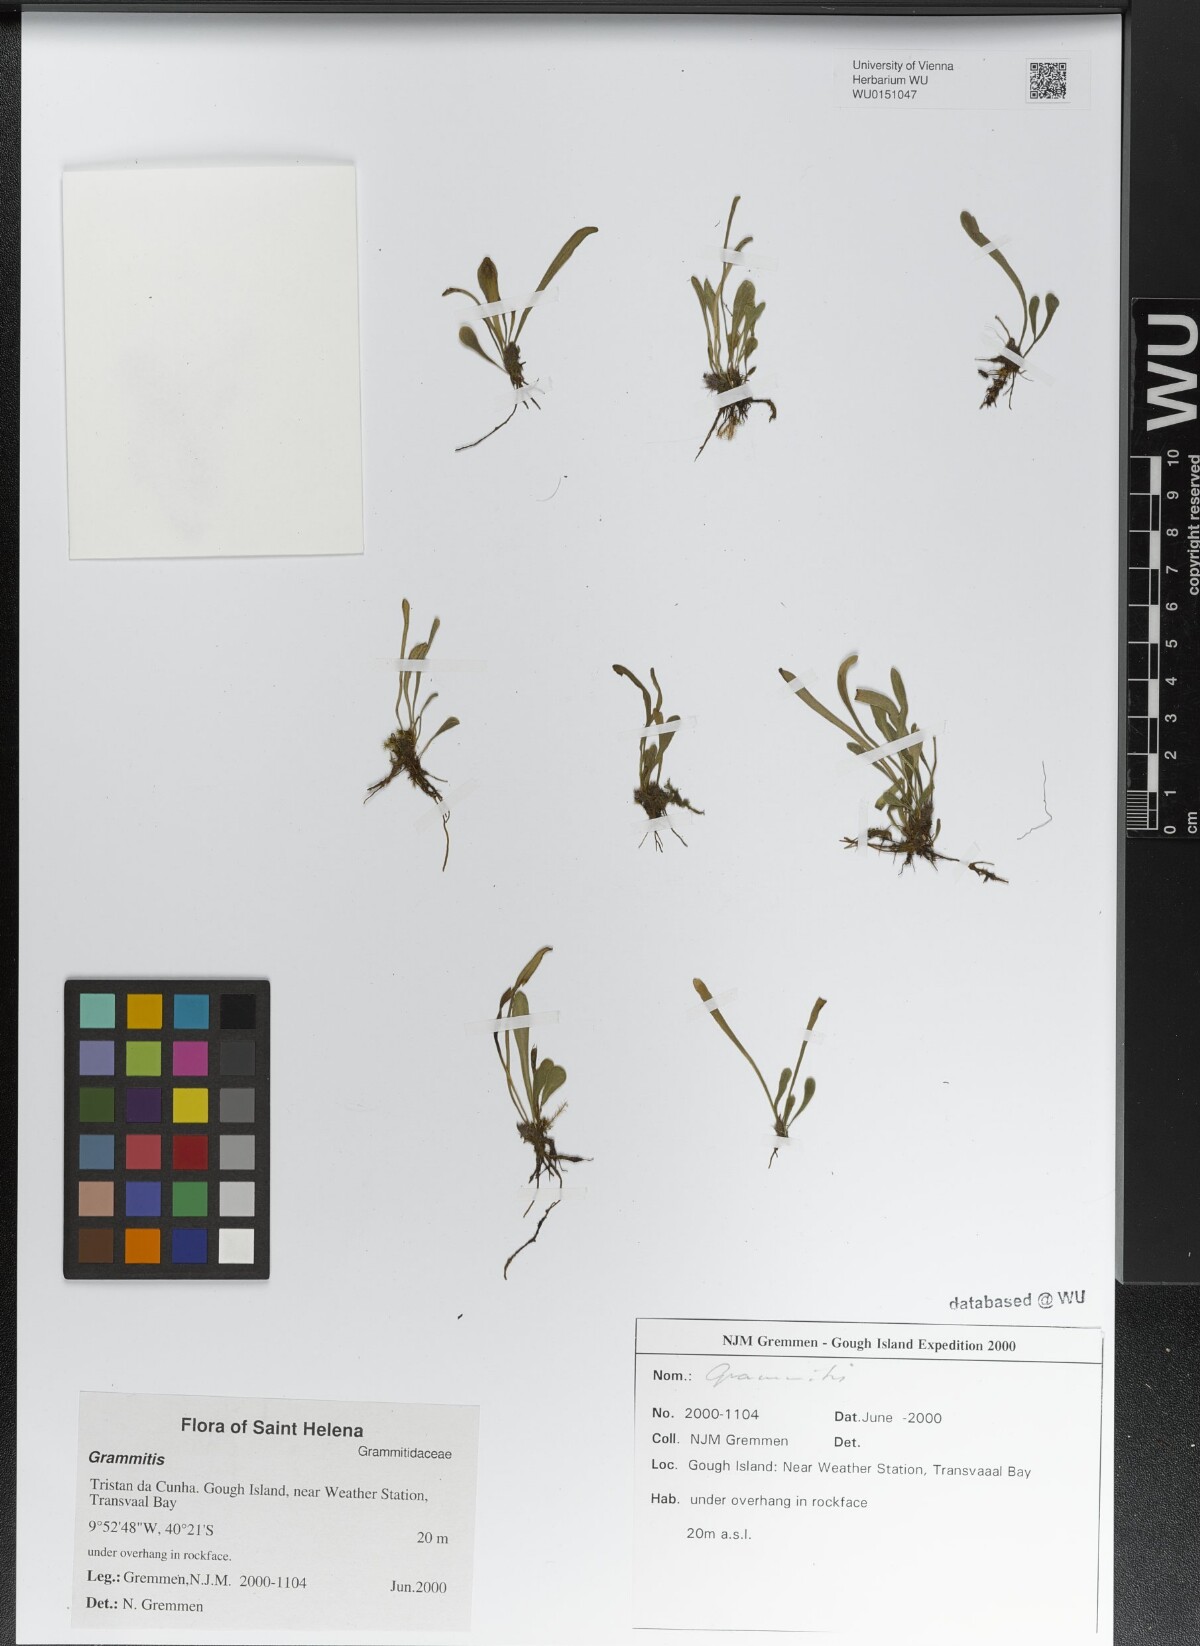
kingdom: Plantae
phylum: Tracheophyta
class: Polypodiopsida
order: Polypodiales
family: Polypodiaceae
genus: Grammitis
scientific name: Grammitis
